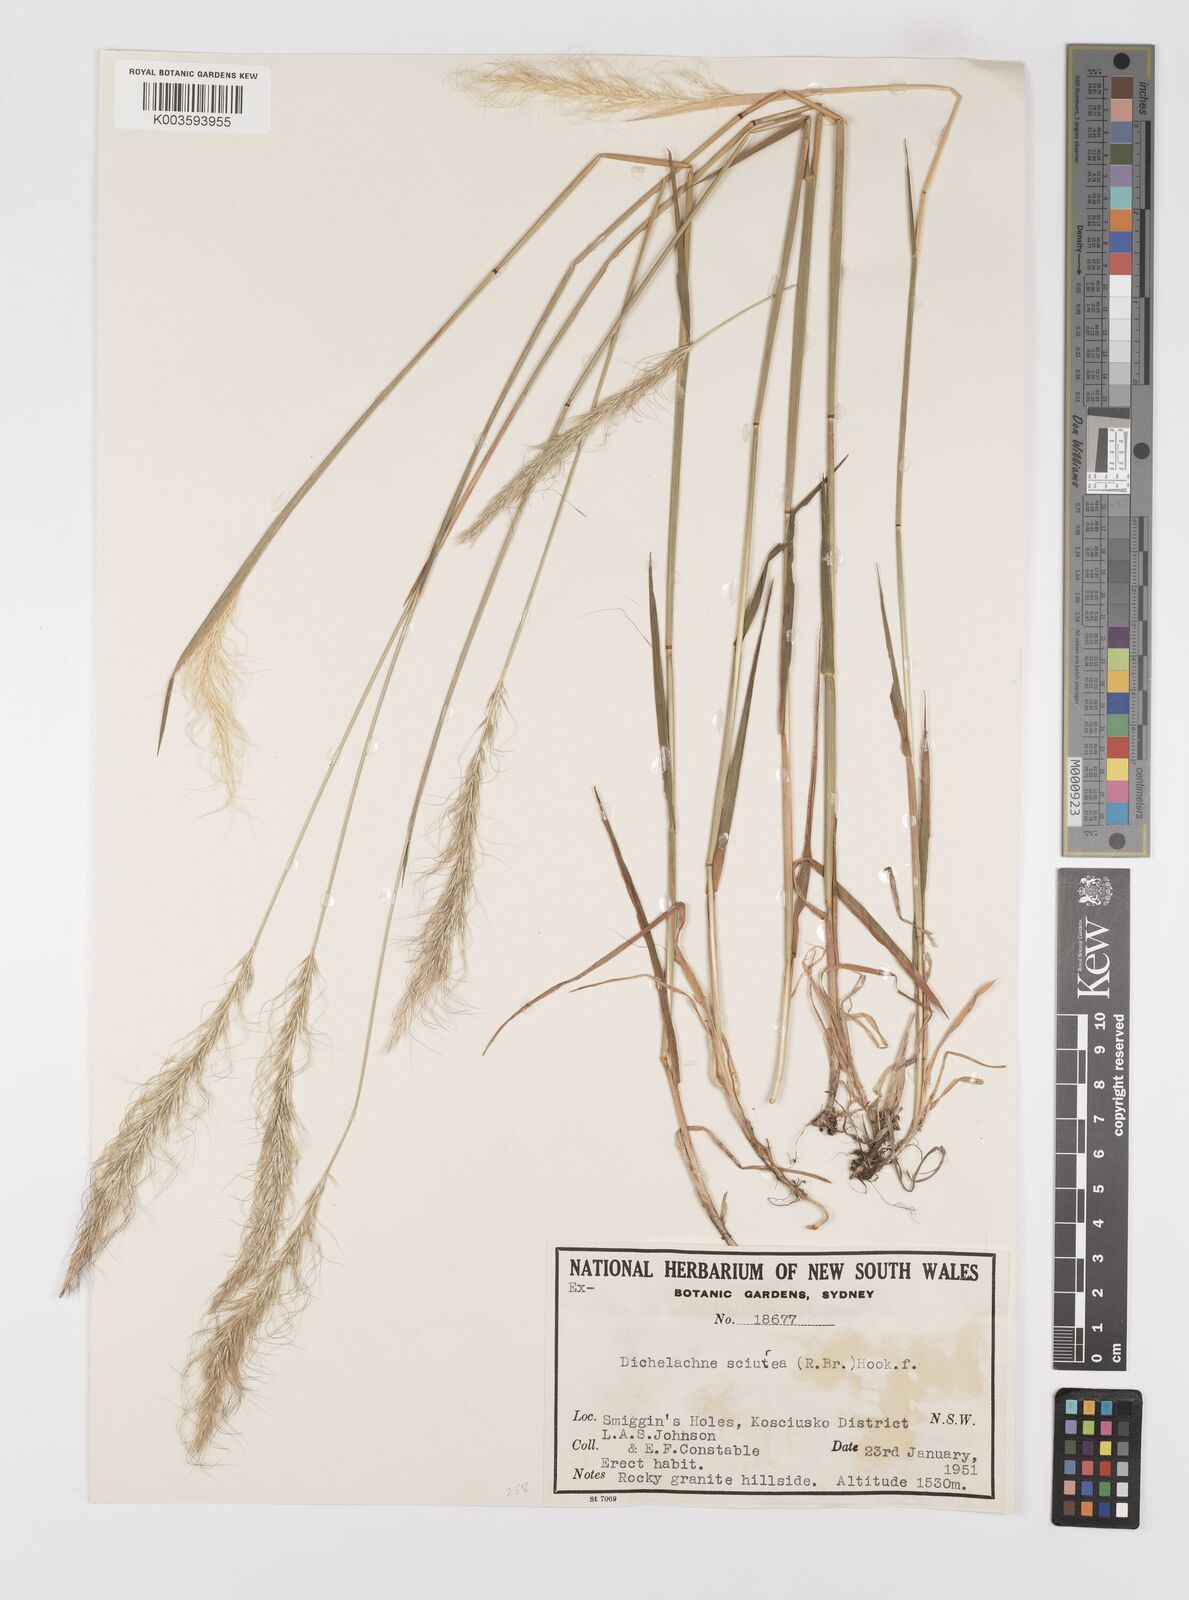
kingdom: Plantae
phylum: Tracheophyta
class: Liliopsida
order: Poales
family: Poaceae
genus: Dichelachne
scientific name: Dichelachne
